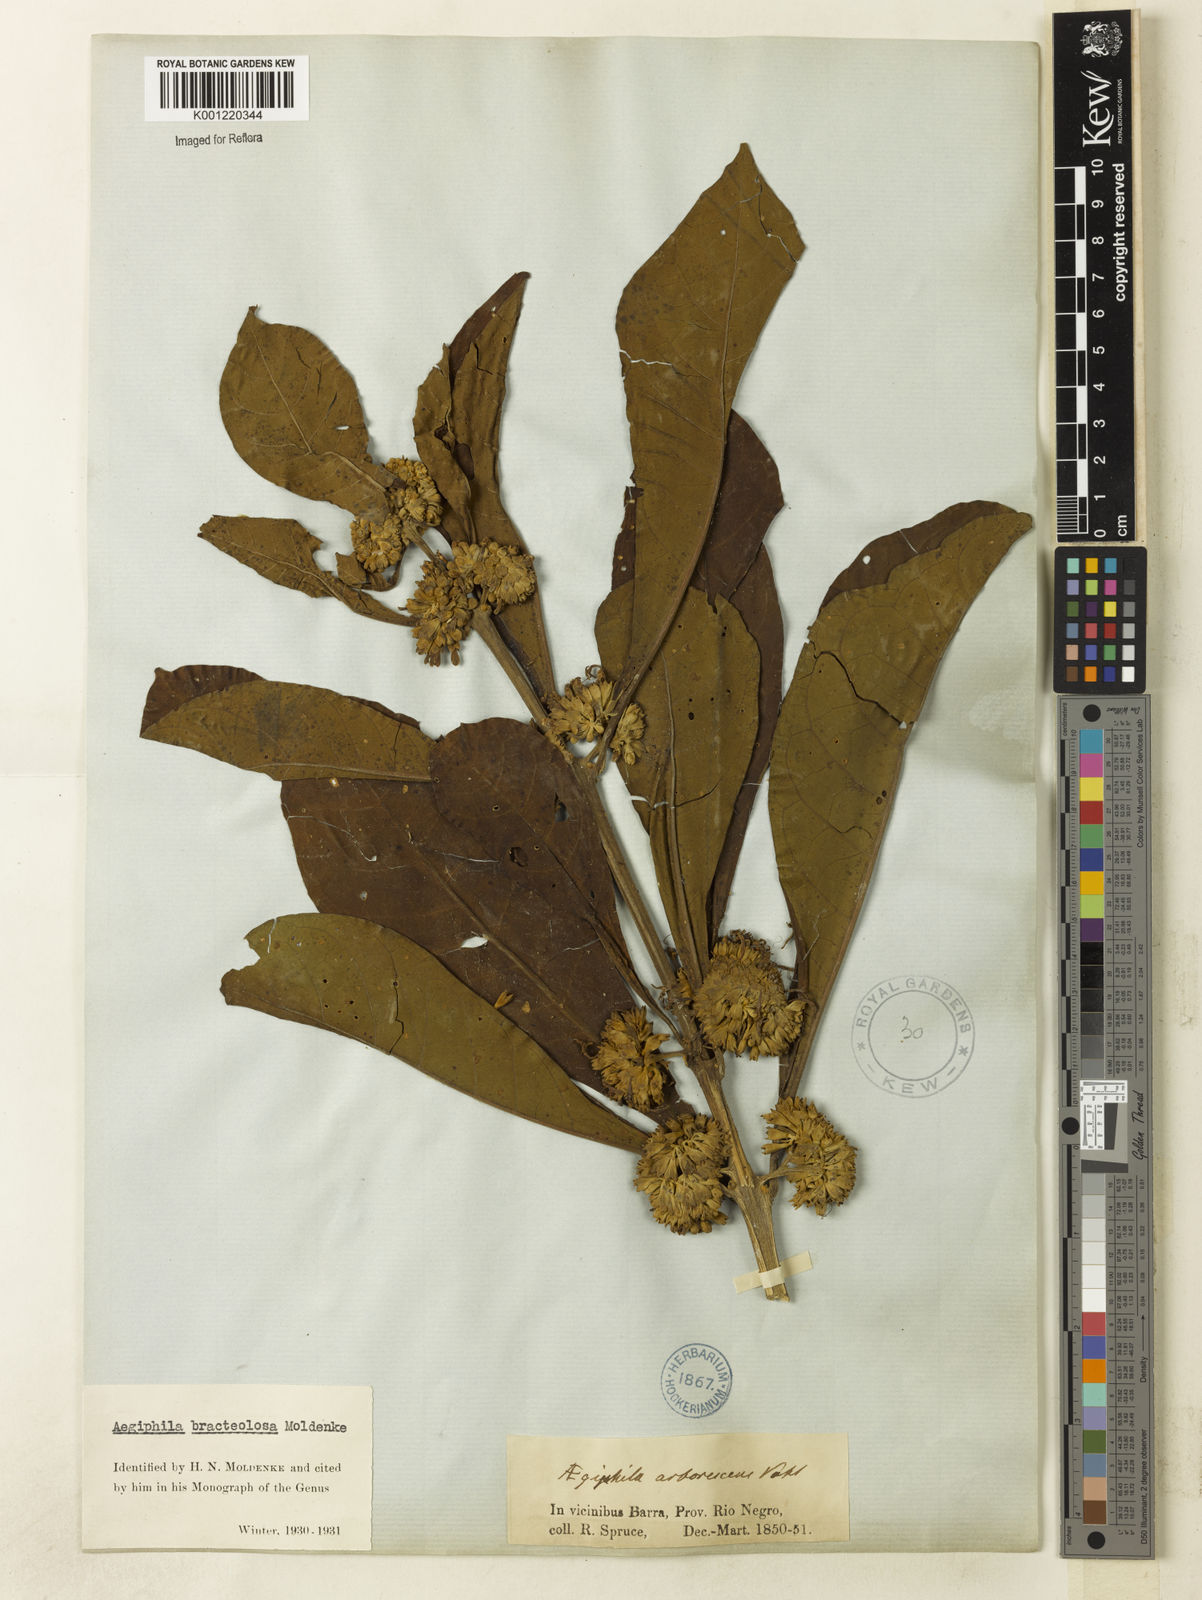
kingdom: Plantae
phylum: Tracheophyta
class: Magnoliopsida
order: Lamiales
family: Lamiaceae
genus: Aegiphila
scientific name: Aegiphila bracteolosa
